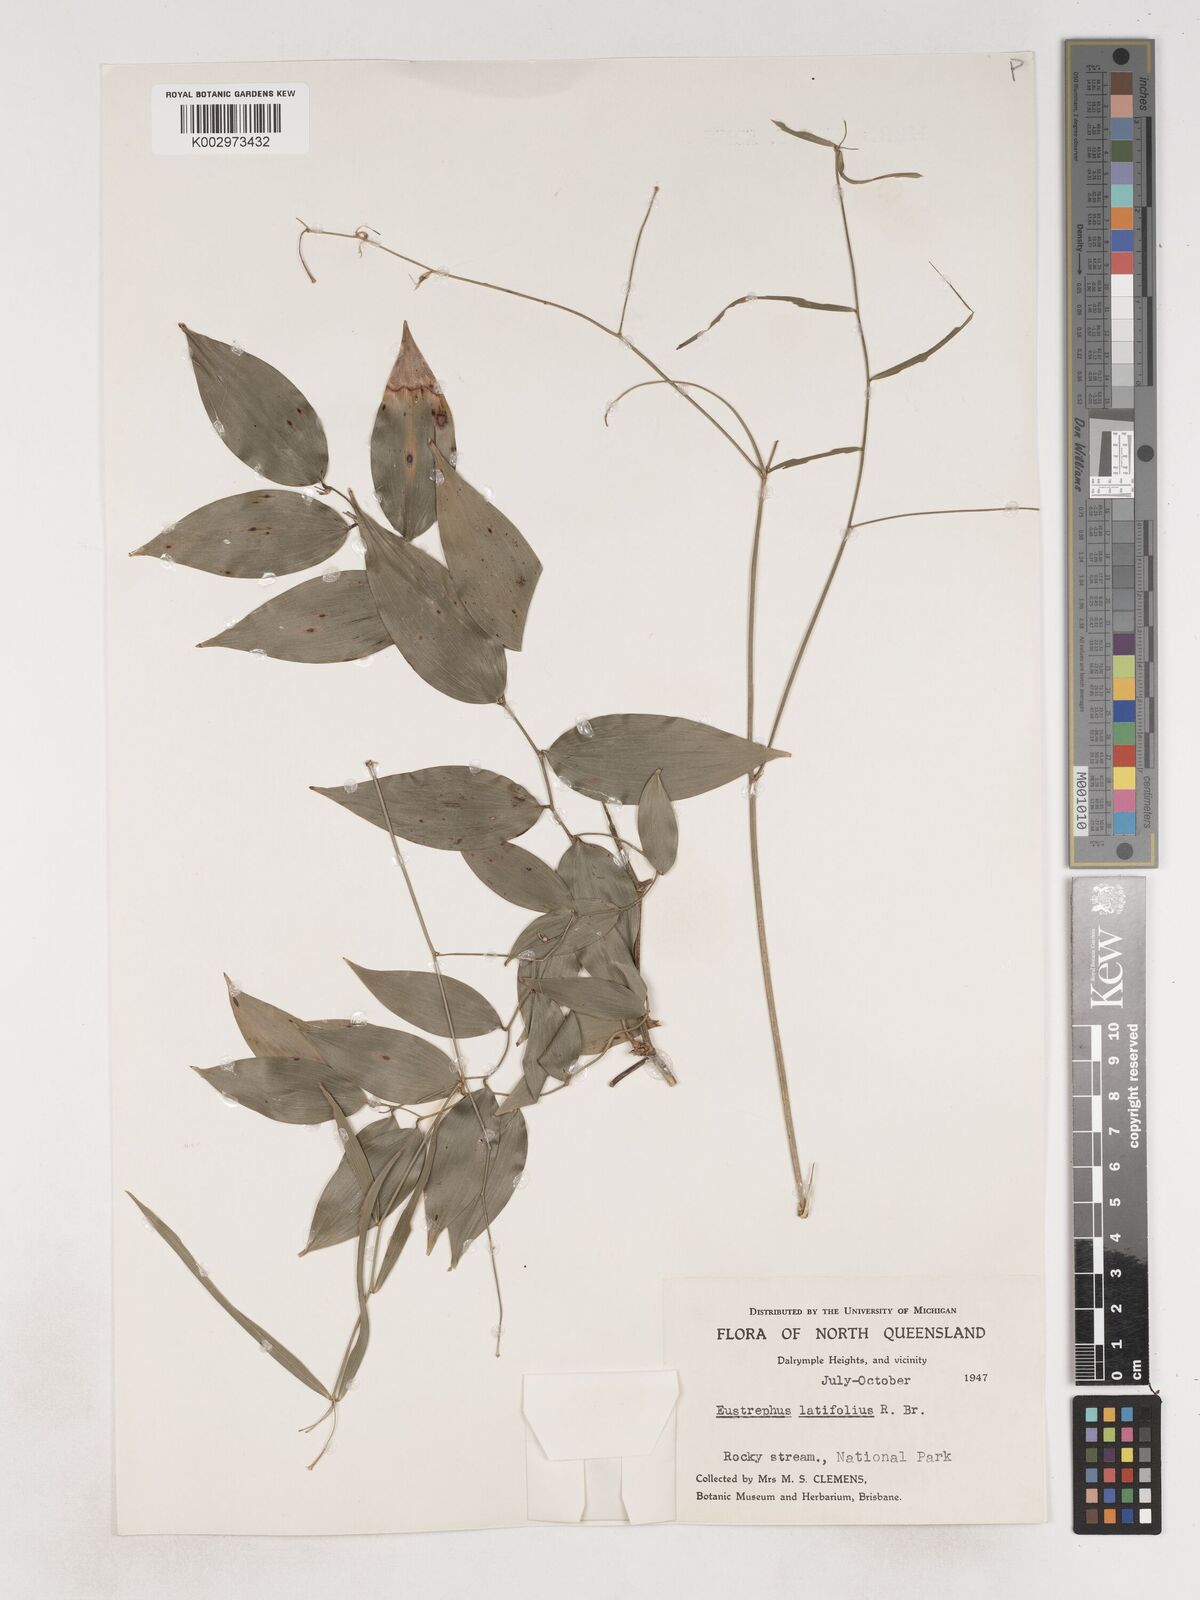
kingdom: Plantae
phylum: Tracheophyta
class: Liliopsida
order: Asparagales
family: Asparagaceae
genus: Eustrephus
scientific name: Eustrephus latifolius
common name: Orangevine
